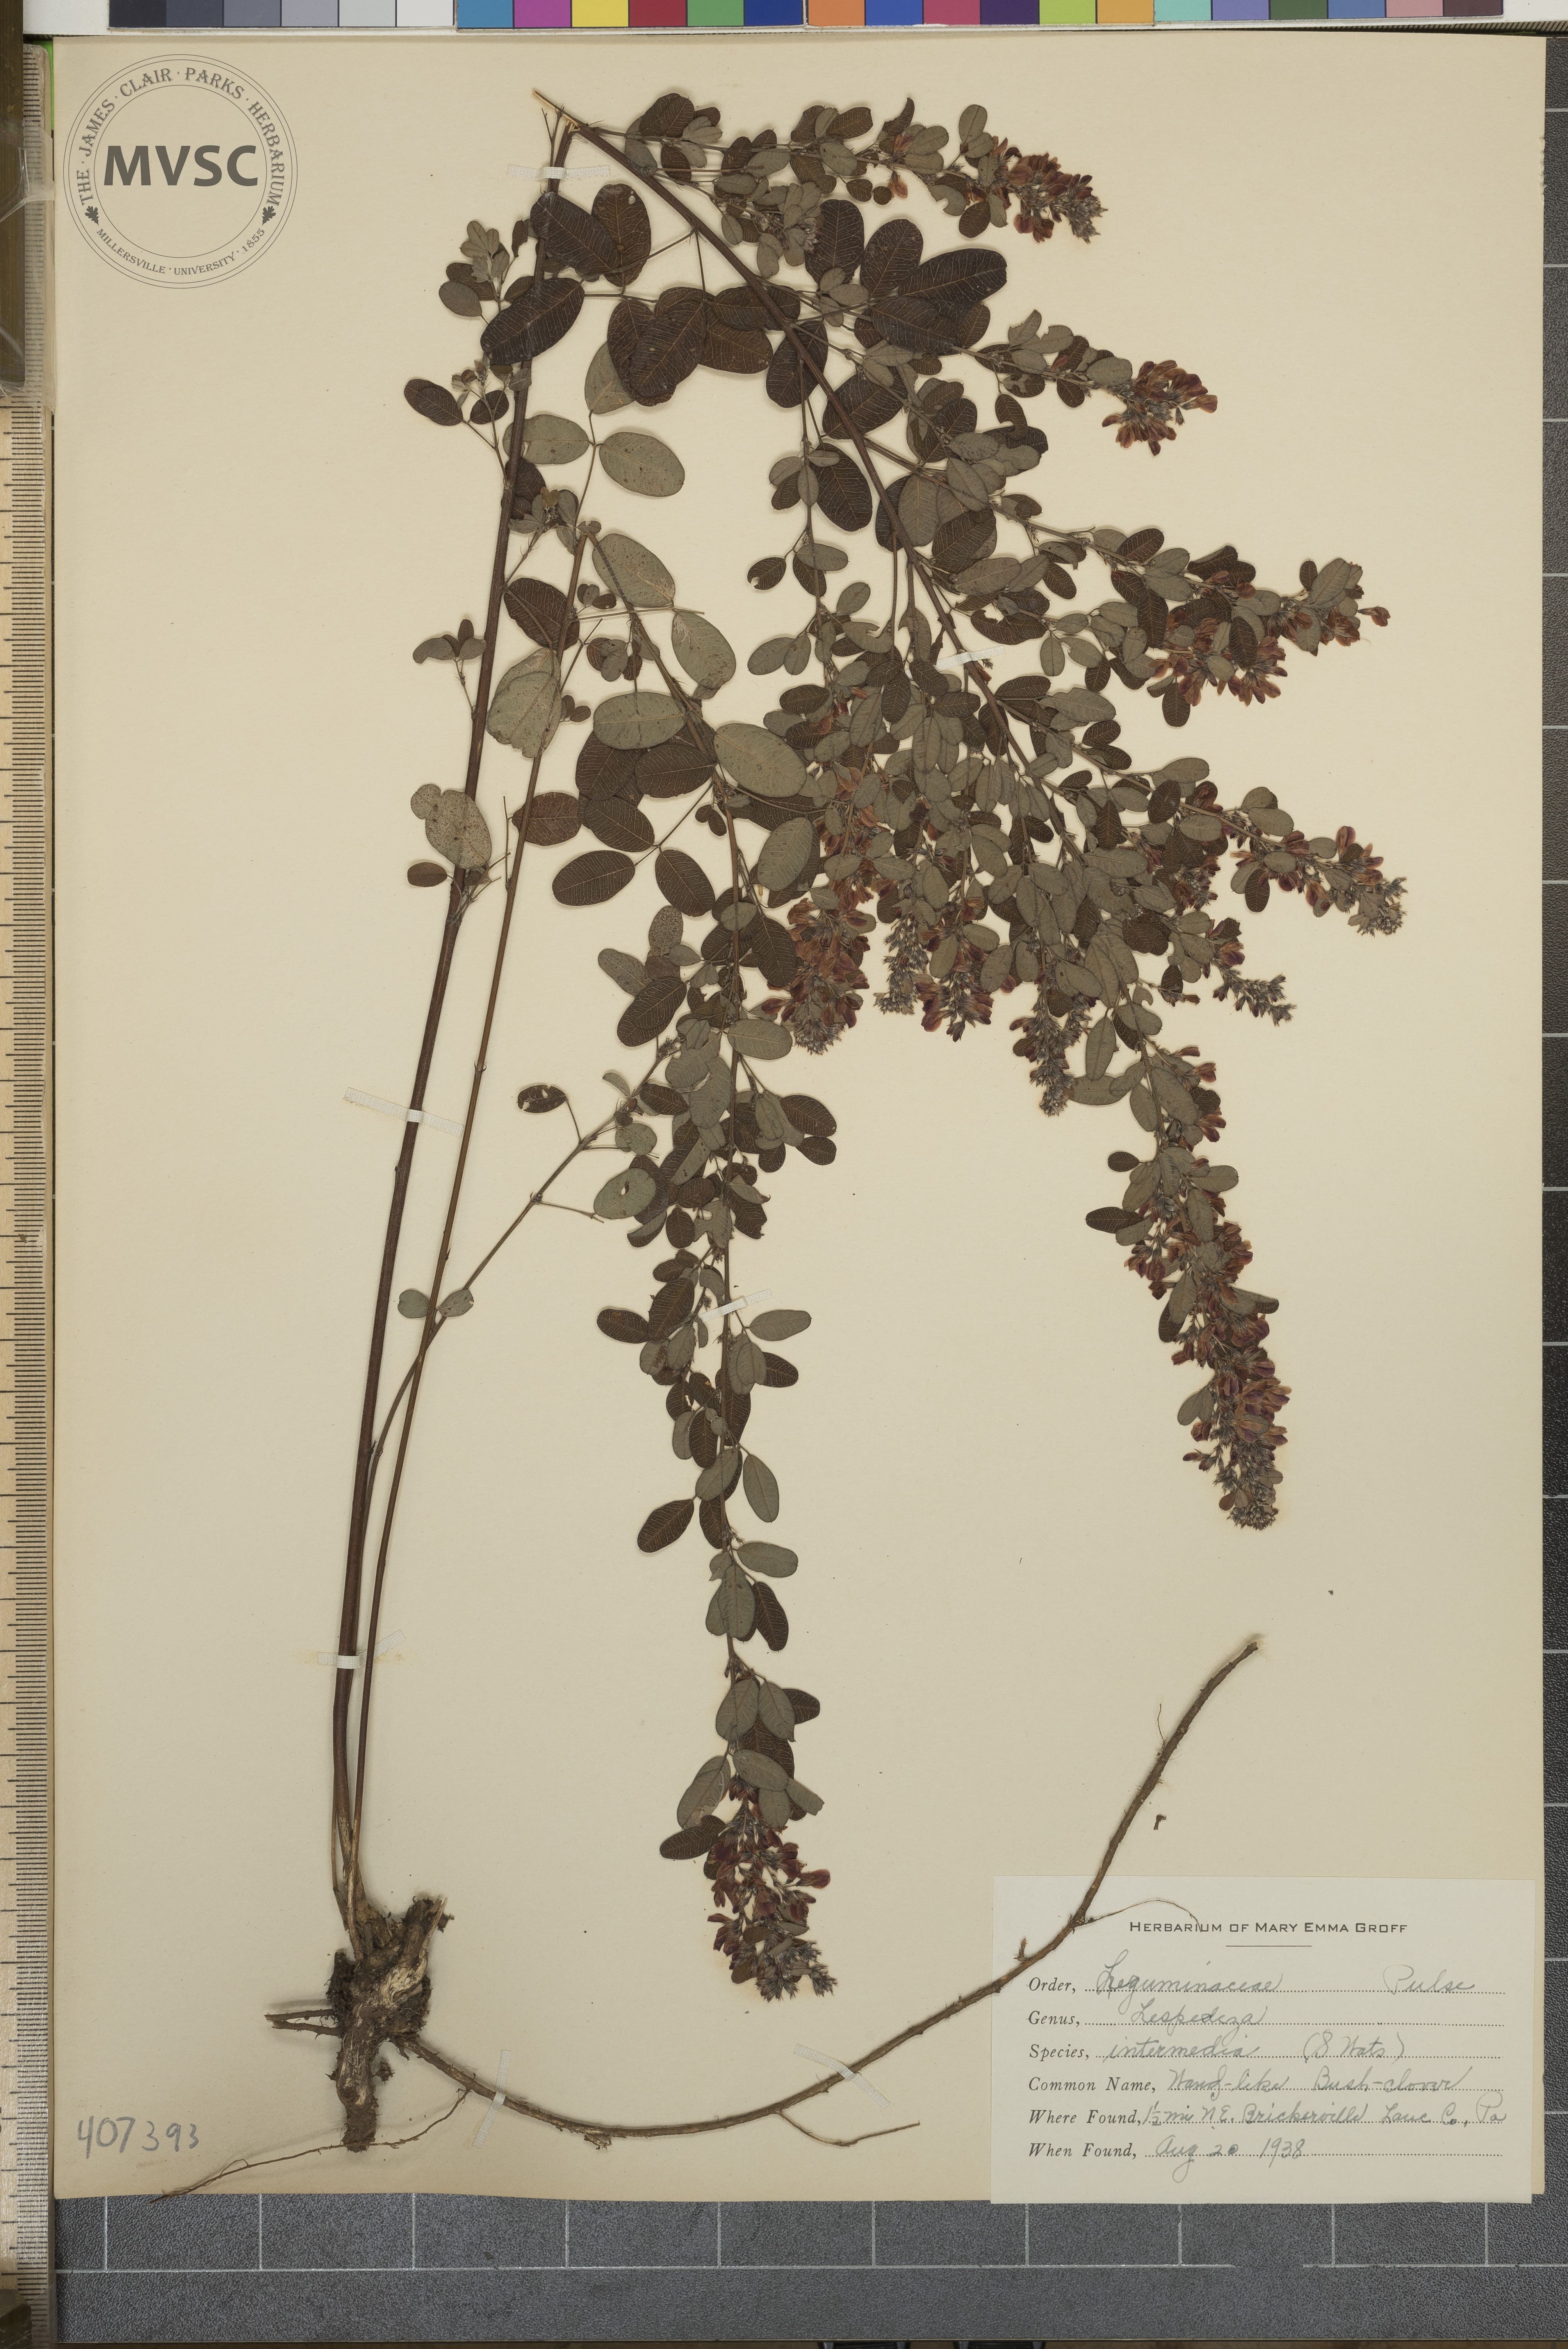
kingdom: Plantae
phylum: Tracheophyta
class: Magnoliopsida
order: Fabales
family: Fabaceae
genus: Lespedeza
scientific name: Lespedeza
